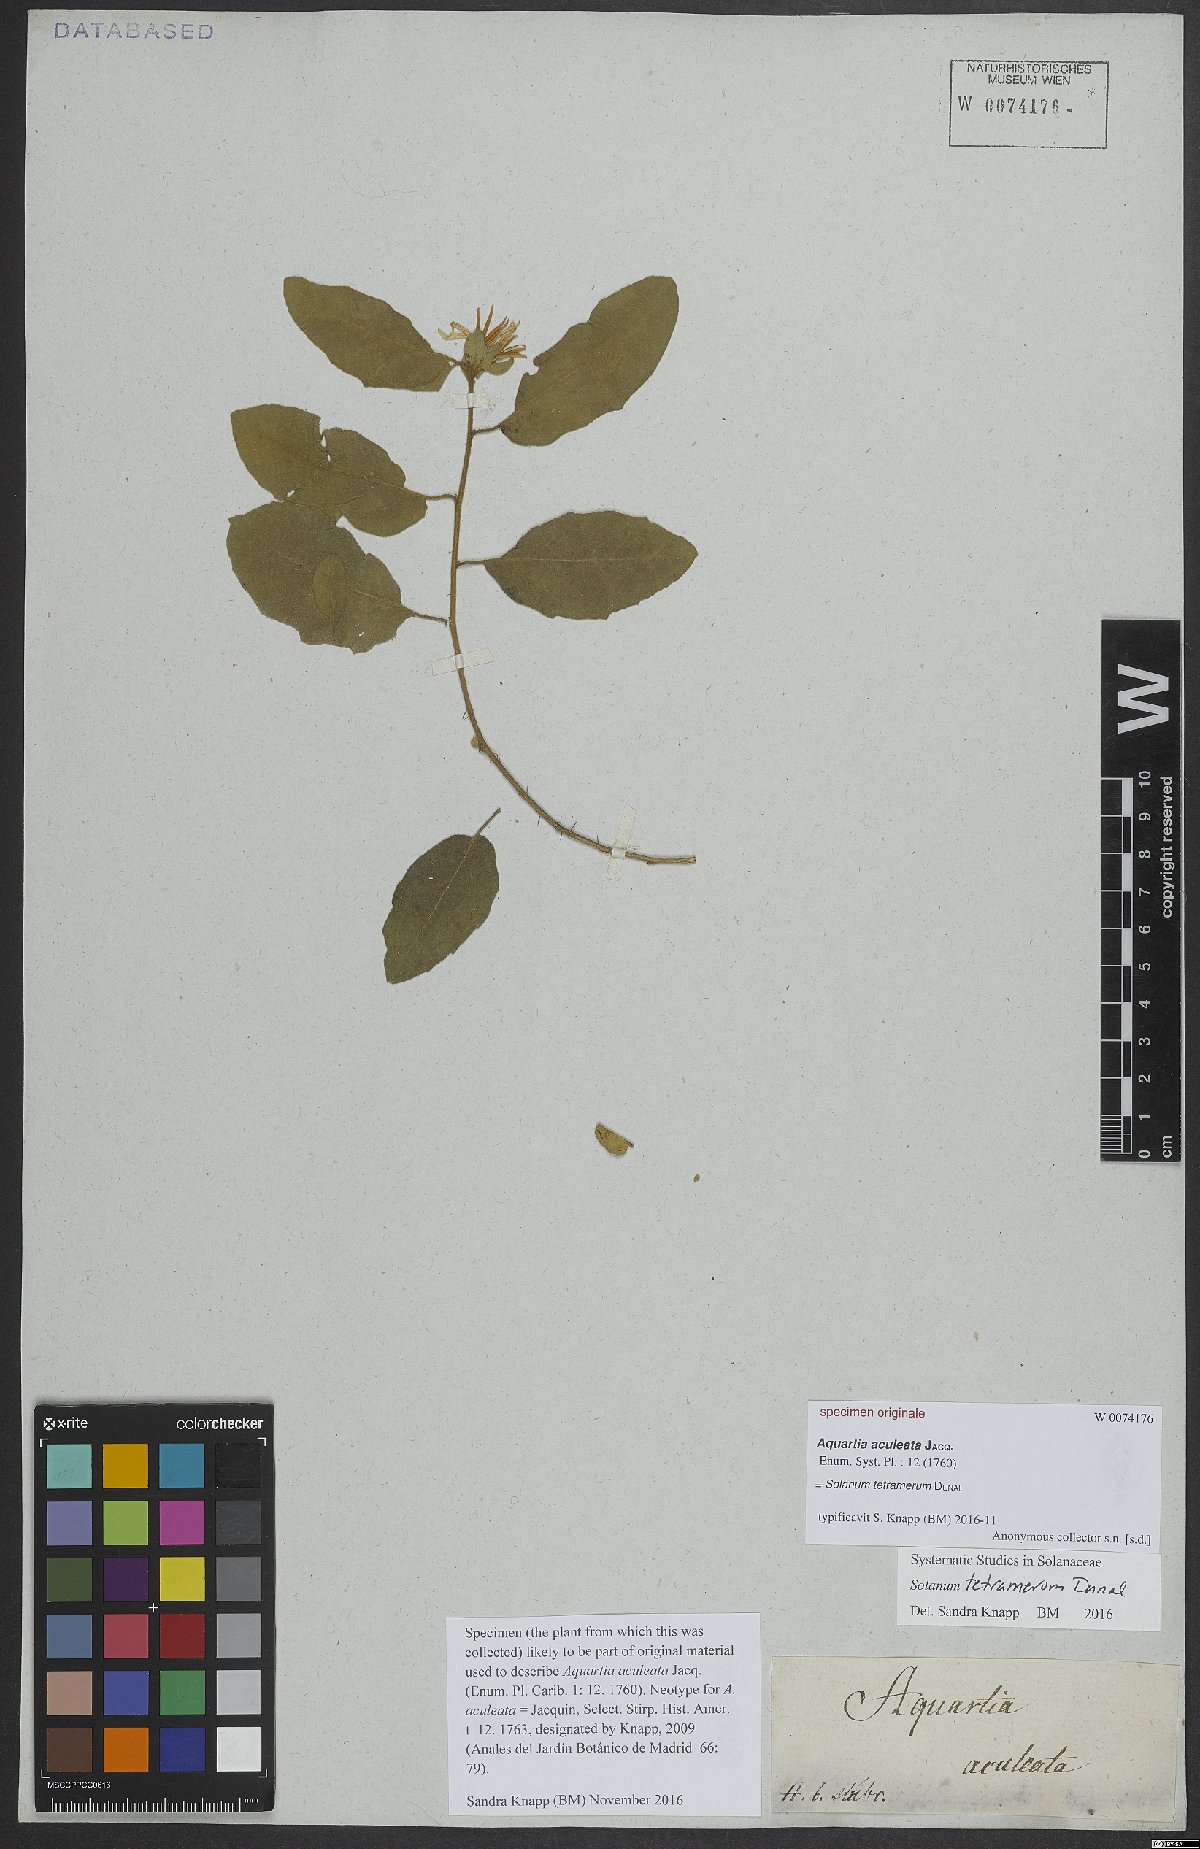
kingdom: Plantae
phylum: Tracheophyta
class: Magnoliopsida
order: Solanales
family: Solanaceae
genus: Solanum
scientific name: Solanum tetramerum
